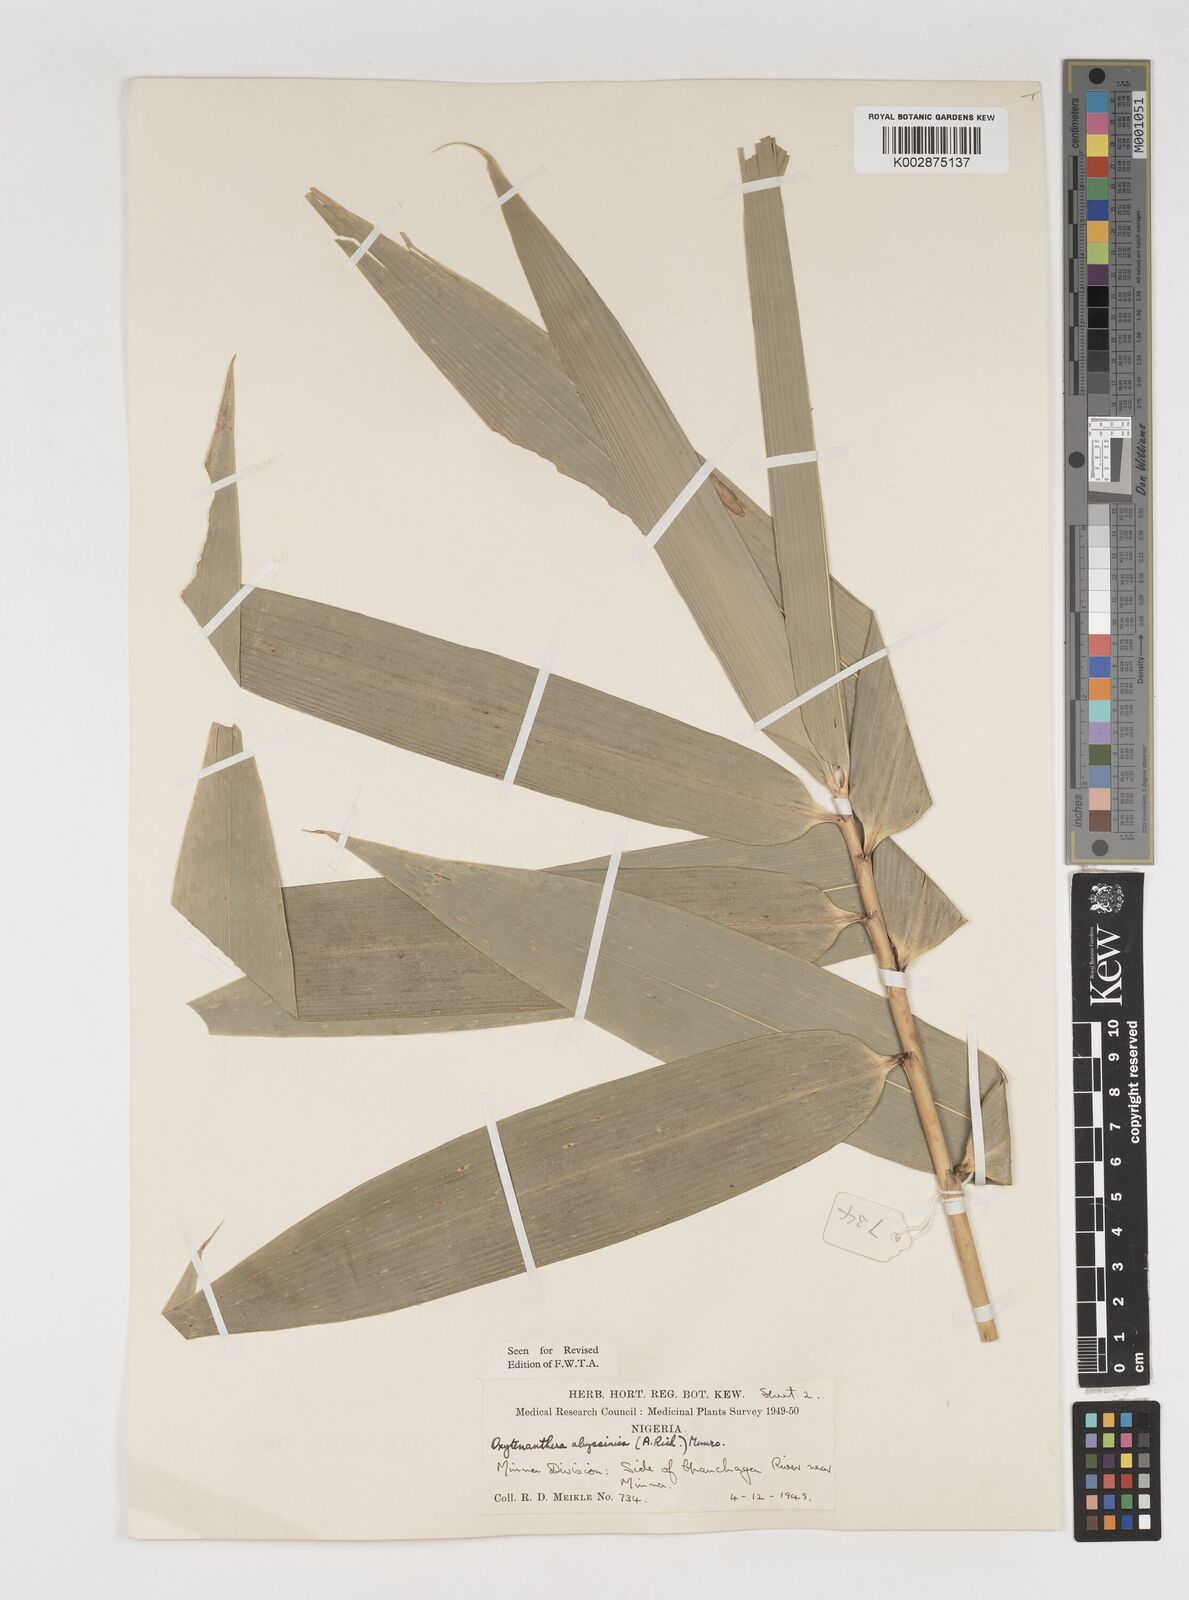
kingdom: Plantae
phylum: Tracheophyta
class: Liliopsida
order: Poales
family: Poaceae
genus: Oxytenanthera
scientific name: Oxytenanthera abyssinica
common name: Wine bamboo
